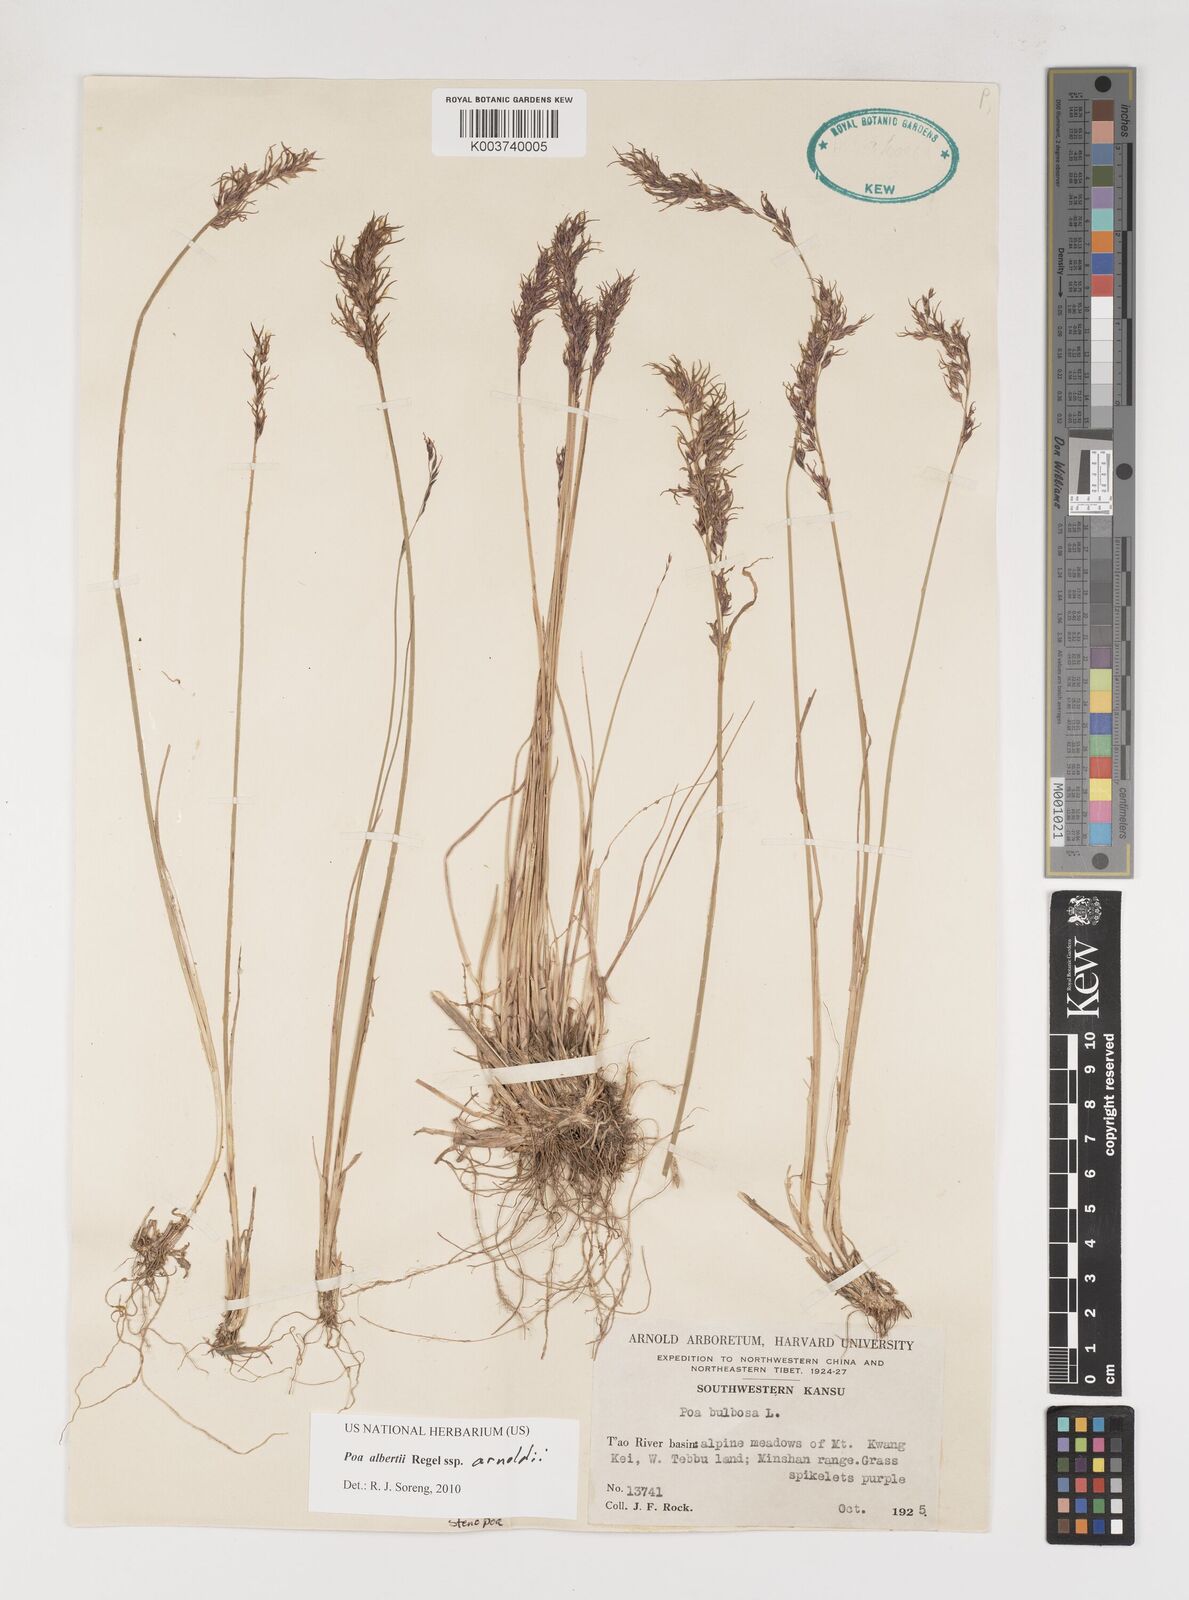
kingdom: Plantae
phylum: Tracheophyta
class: Liliopsida
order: Poales
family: Poaceae
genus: Poa
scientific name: Poa alberti
